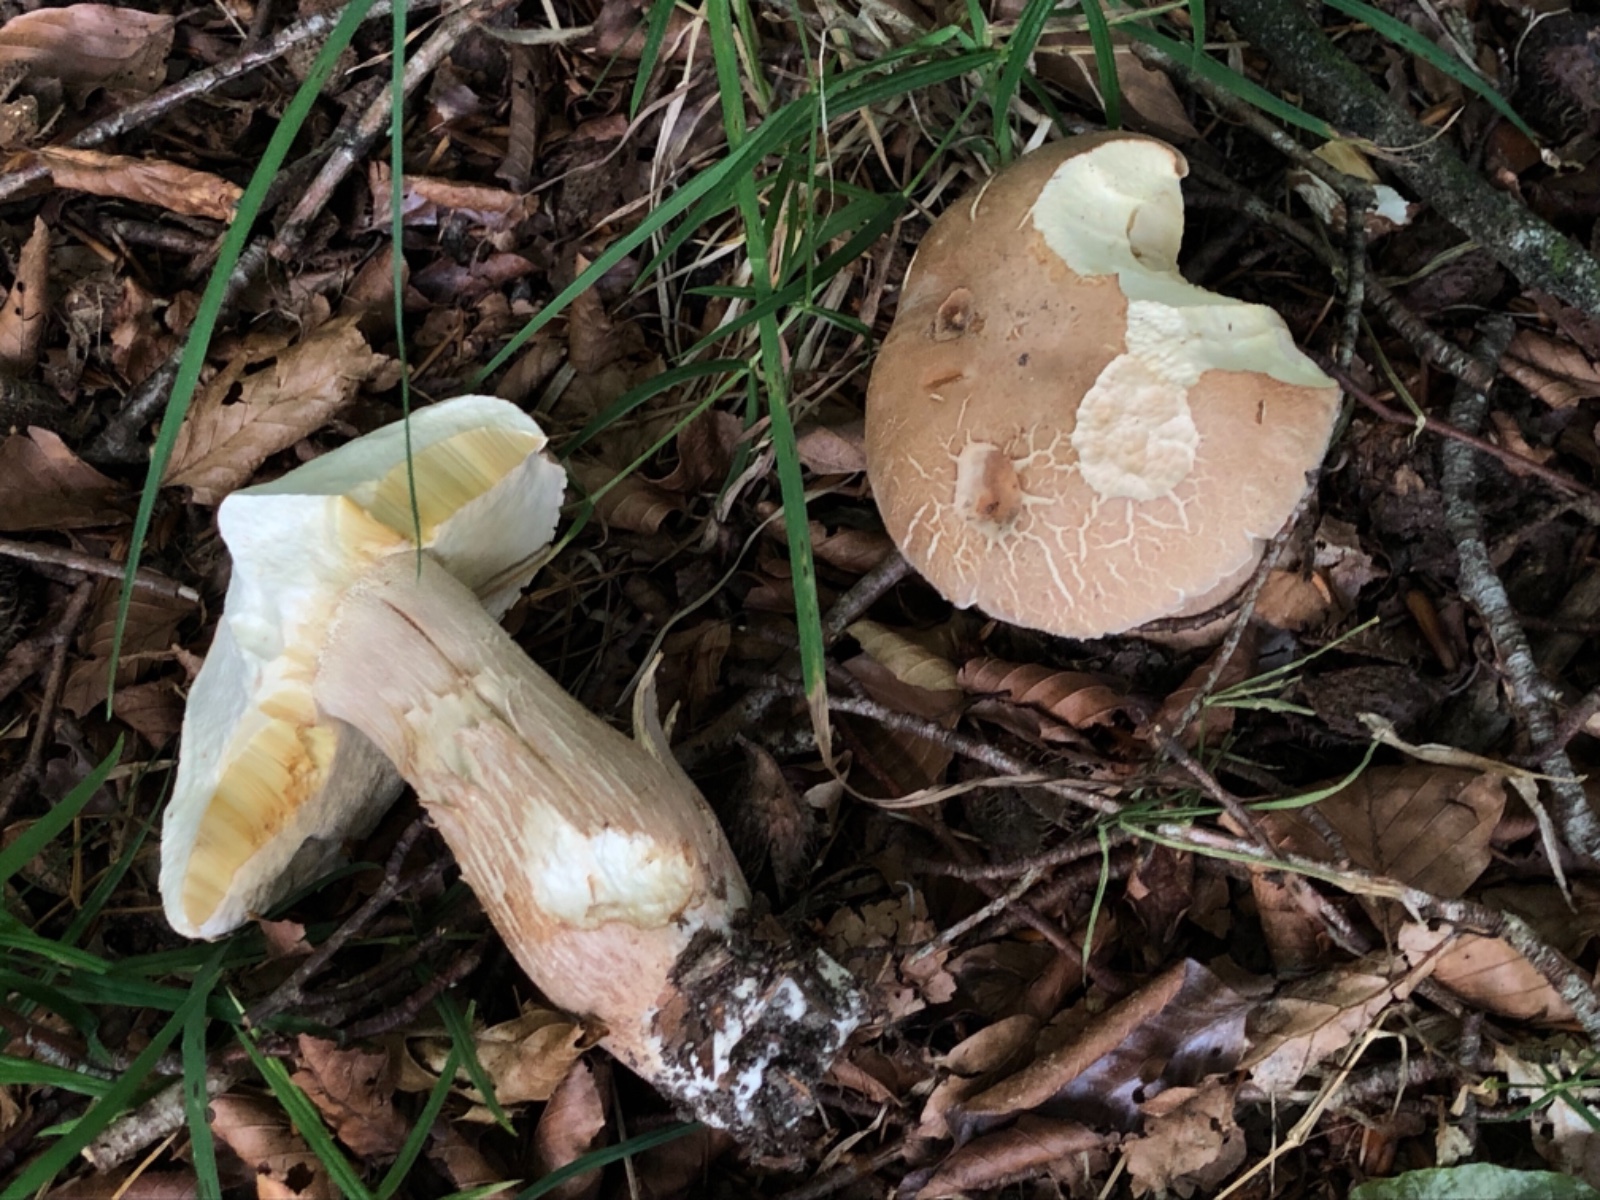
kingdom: Fungi
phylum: Basidiomycota
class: Agaricomycetes
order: Boletales
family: Boletaceae
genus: Boletus
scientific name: Boletus reticulatus
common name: sommer-rørhat
